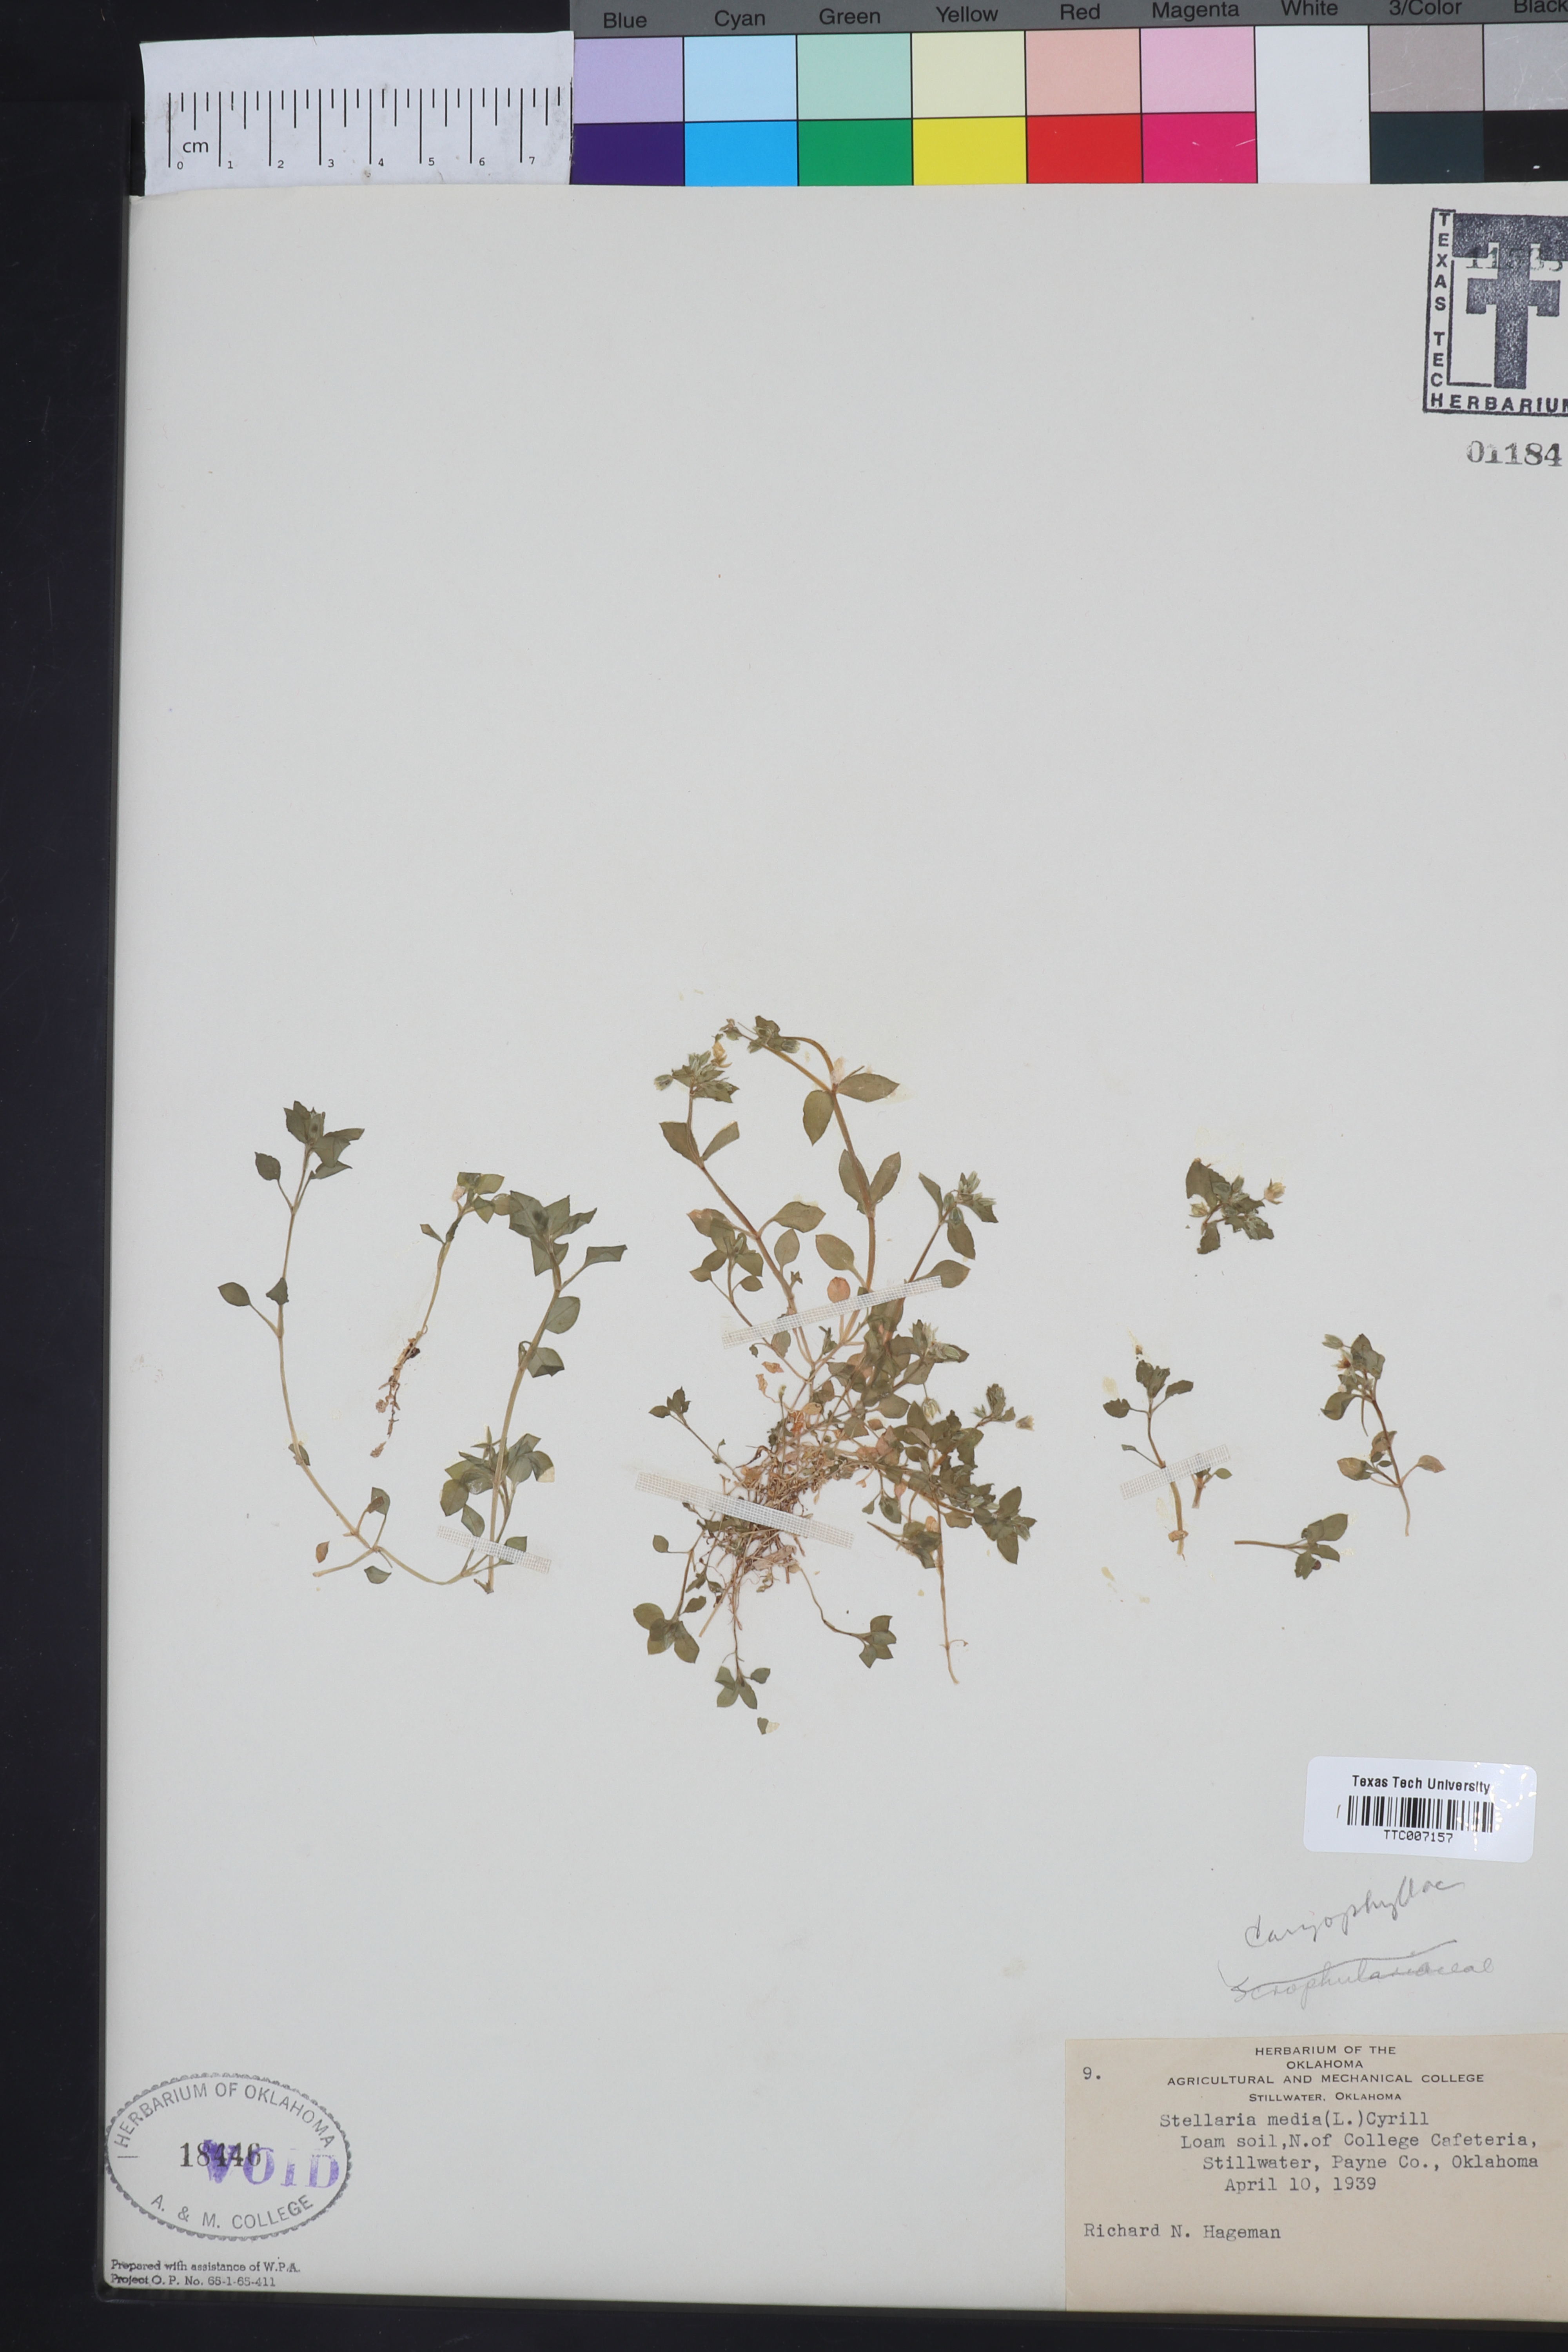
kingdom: Plantae
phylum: Tracheophyta
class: Magnoliopsida
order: Caryophyllales
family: Caryophyllaceae
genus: Stellaria
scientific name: Stellaria media
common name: Common chickweed
